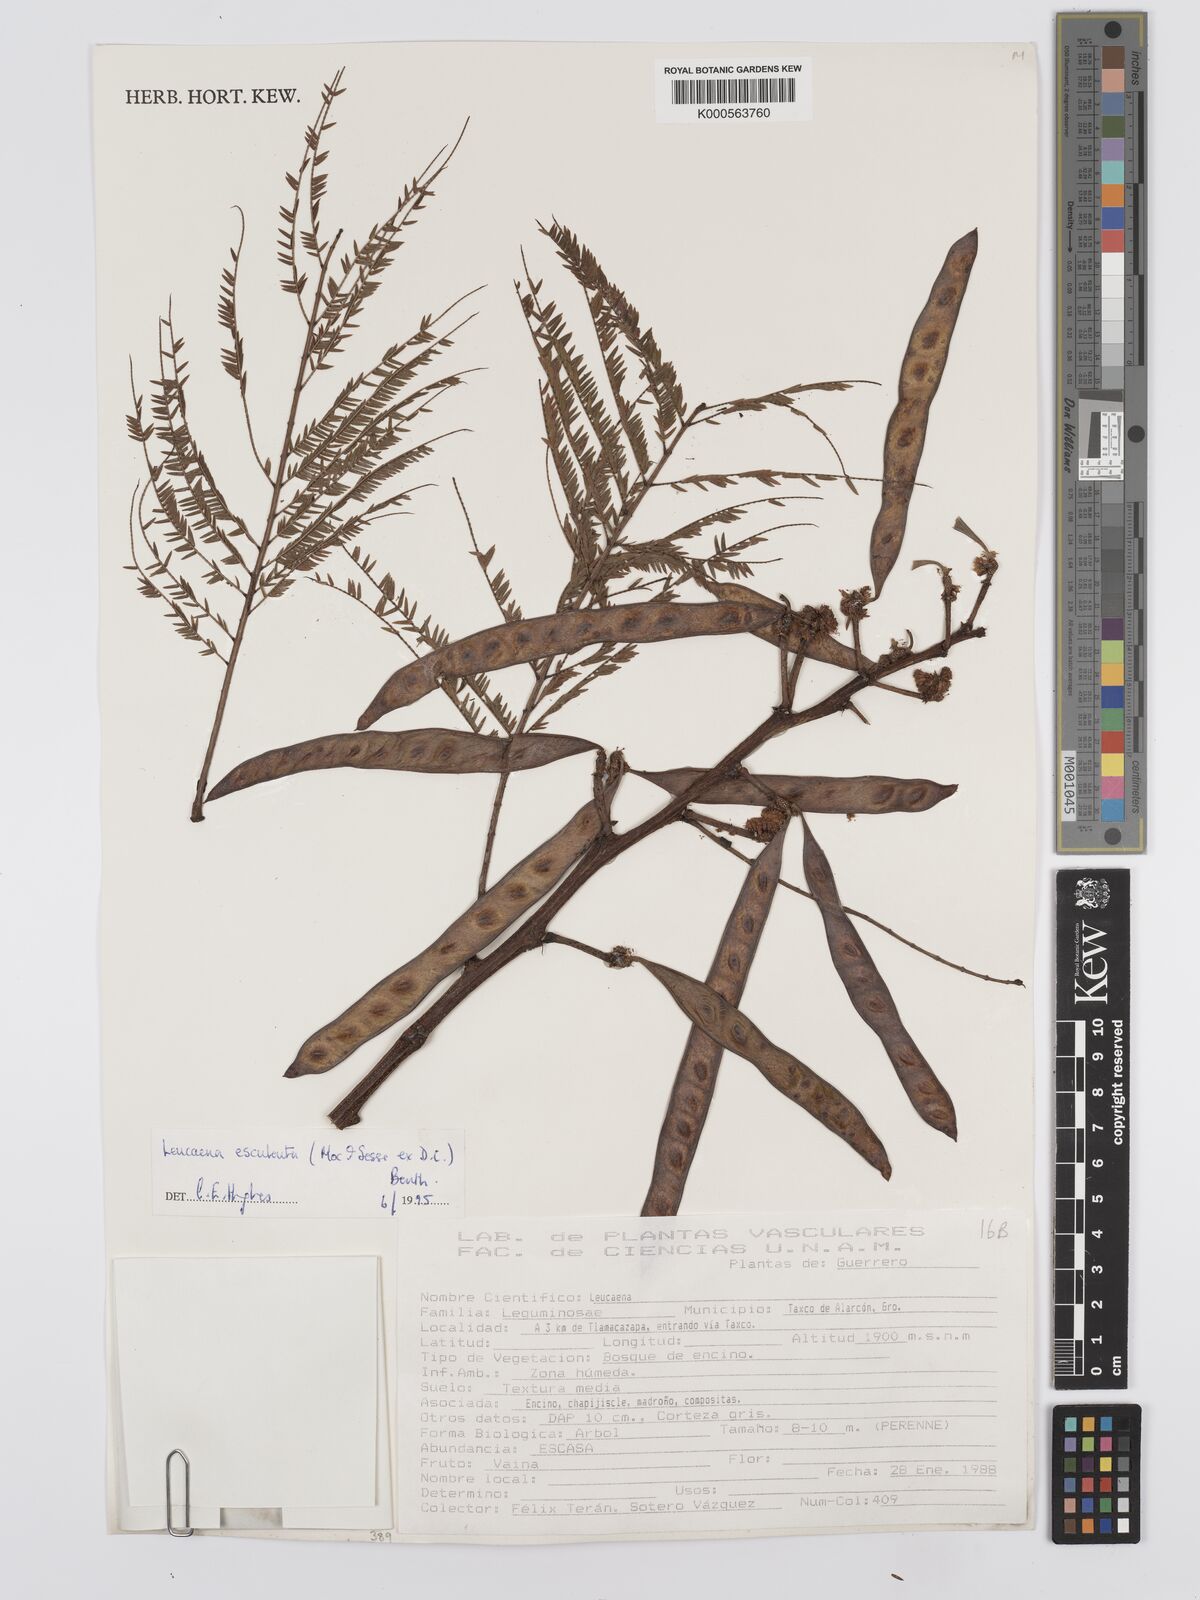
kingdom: Plantae
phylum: Tracheophyta
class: Magnoliopsida
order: Fabales
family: Fabaceae
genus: Leucaena
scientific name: Leucaena esculenta
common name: Guaje
